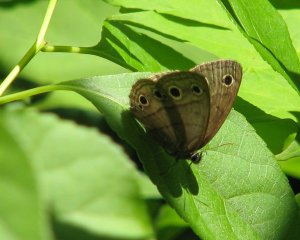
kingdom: Animalia
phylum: Arthropoda
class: Insecta
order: Lepidoptera
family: Nymphalidae
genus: Euptychia
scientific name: Euptychia cymela
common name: Little Wood Satyr
